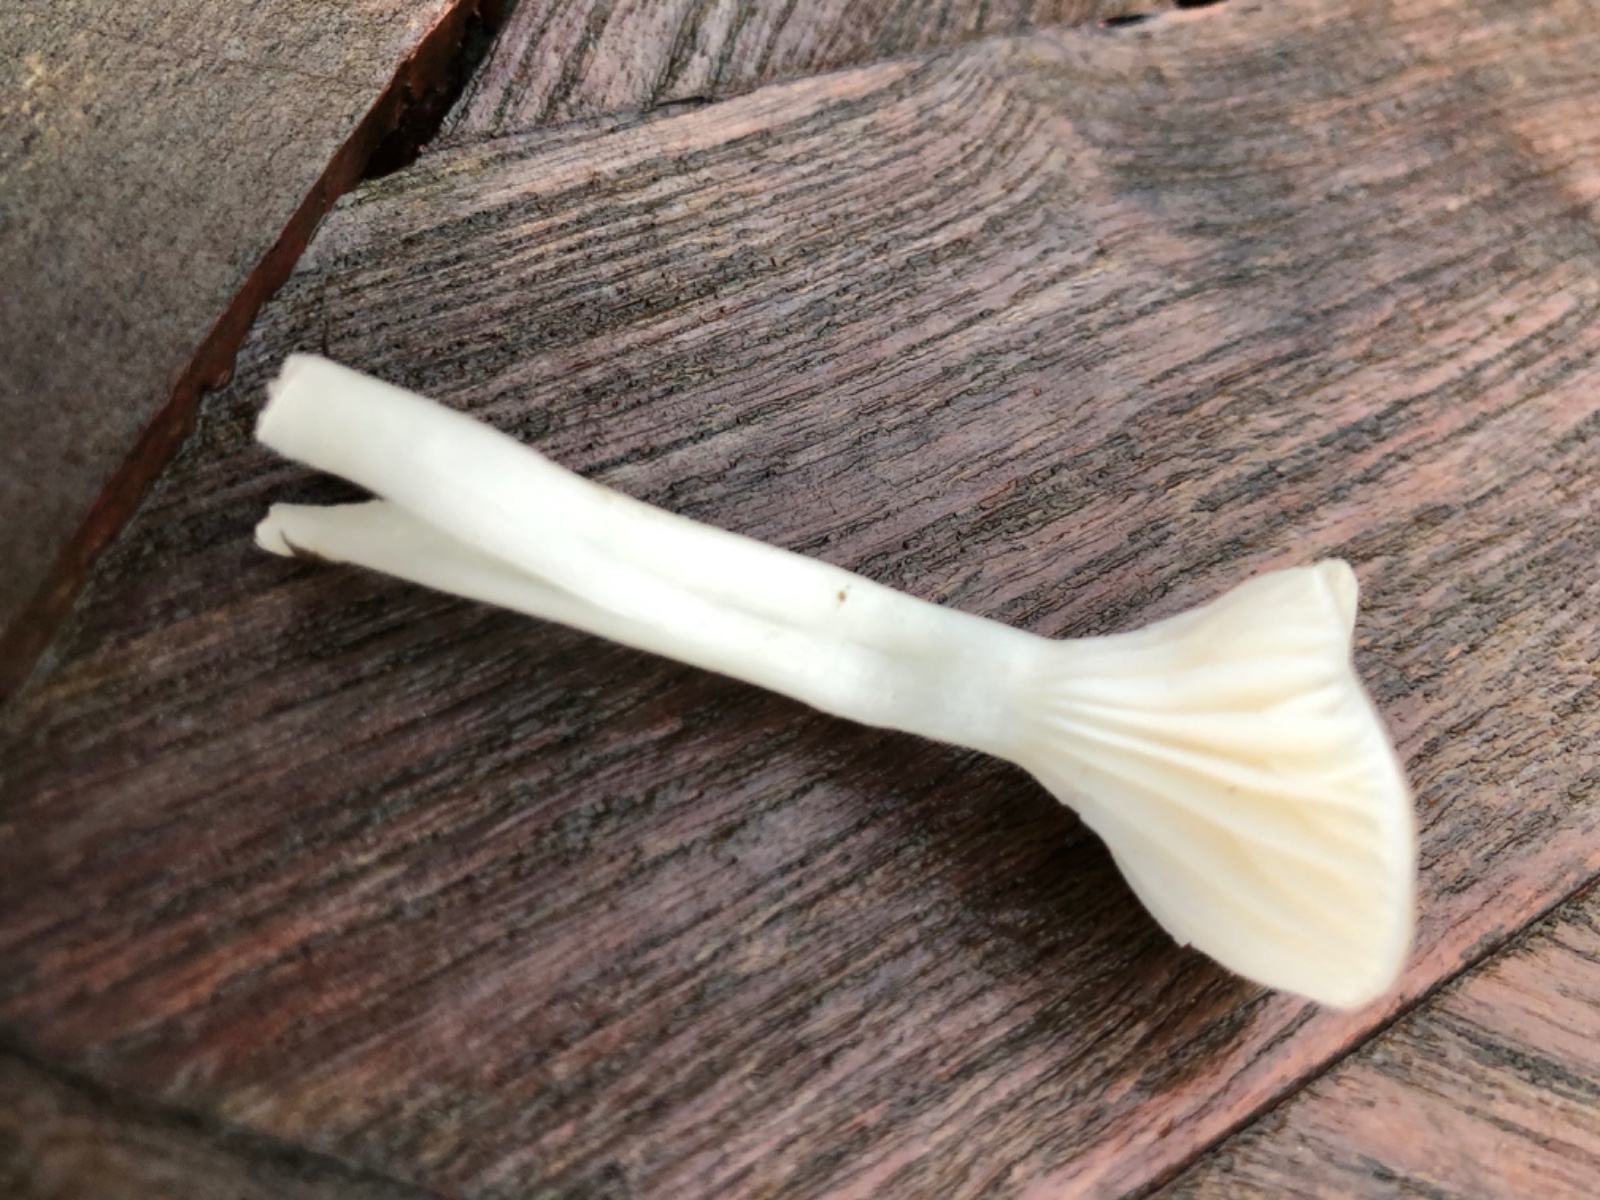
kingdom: Fungi
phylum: Basidiomycota
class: Agaricomycetes
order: Agaricales
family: Hygrophoraceae
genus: Cuphophyllus
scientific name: Cuphophyllus
